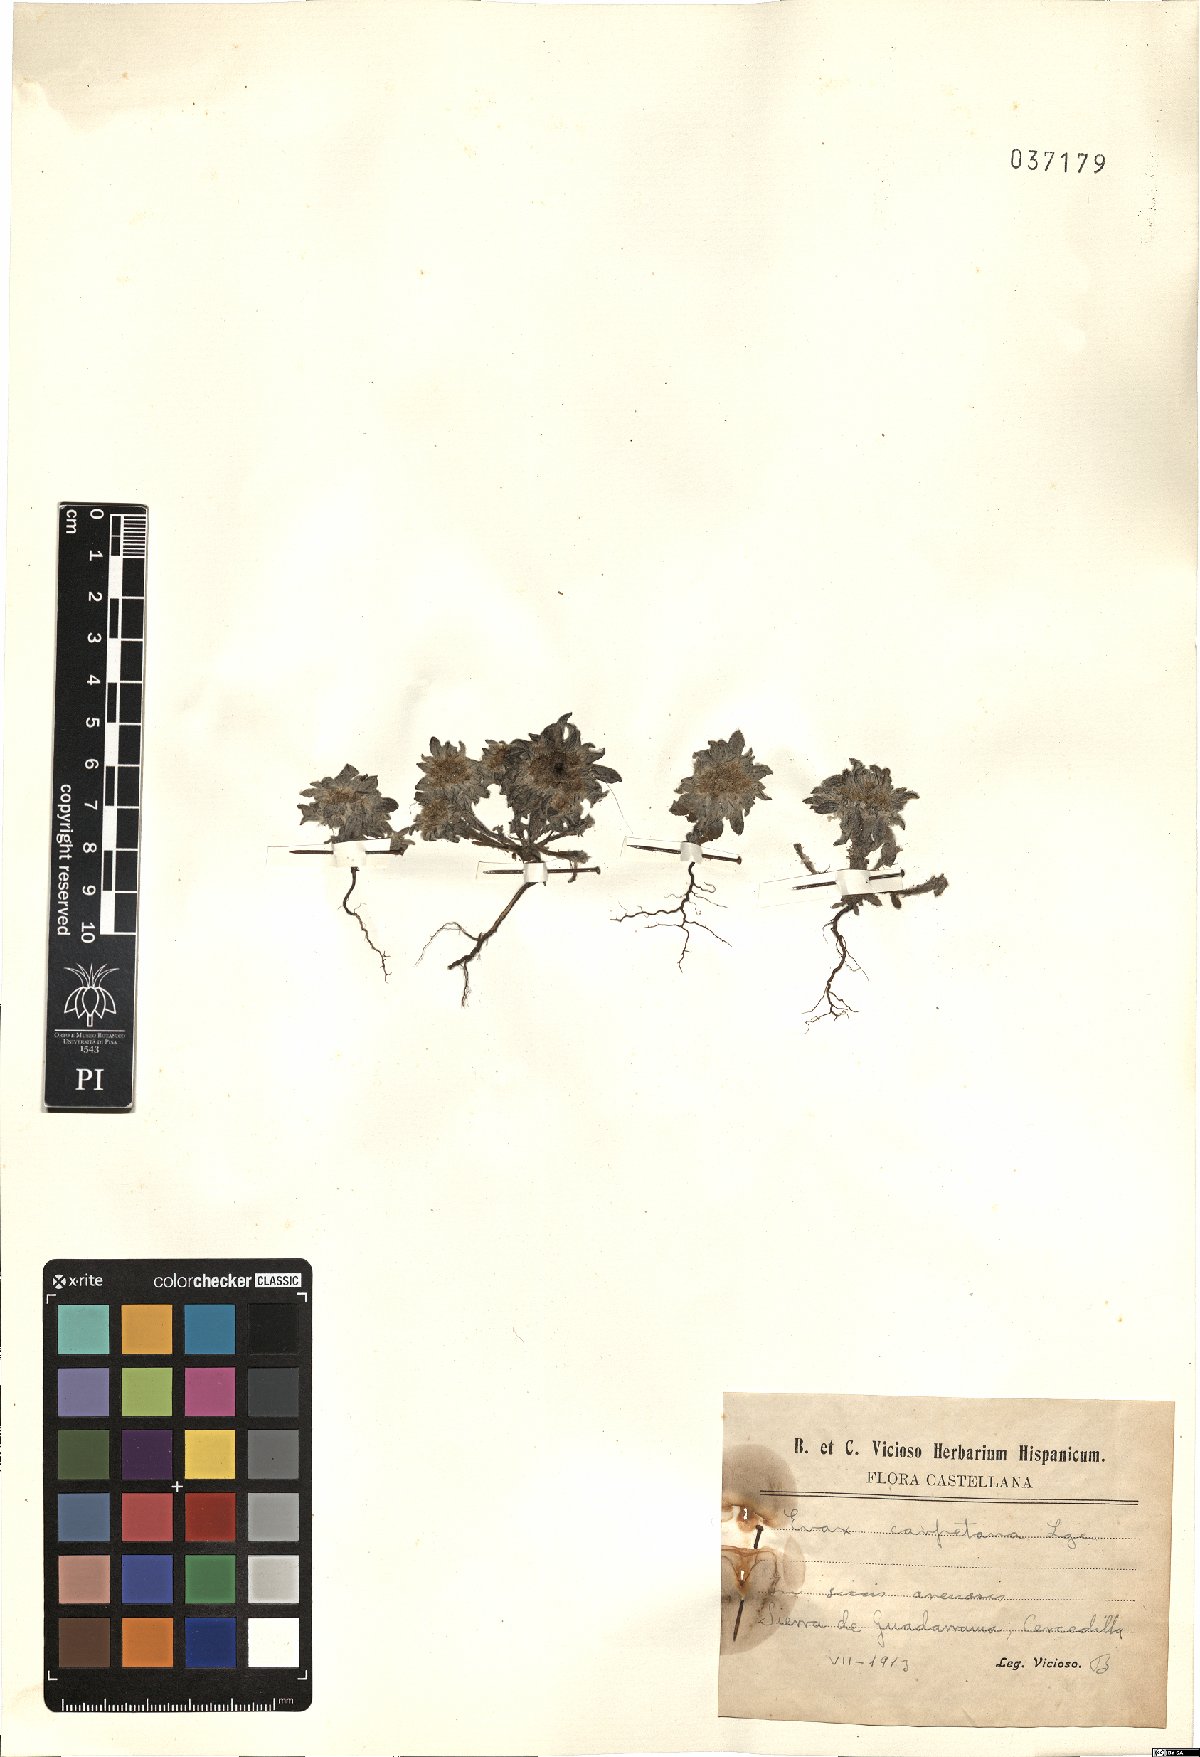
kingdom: Plantae
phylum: Tracheophyta
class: Magnoliopsida
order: Asterales
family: Asteraceae
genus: Filago
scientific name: Filago carpetana
